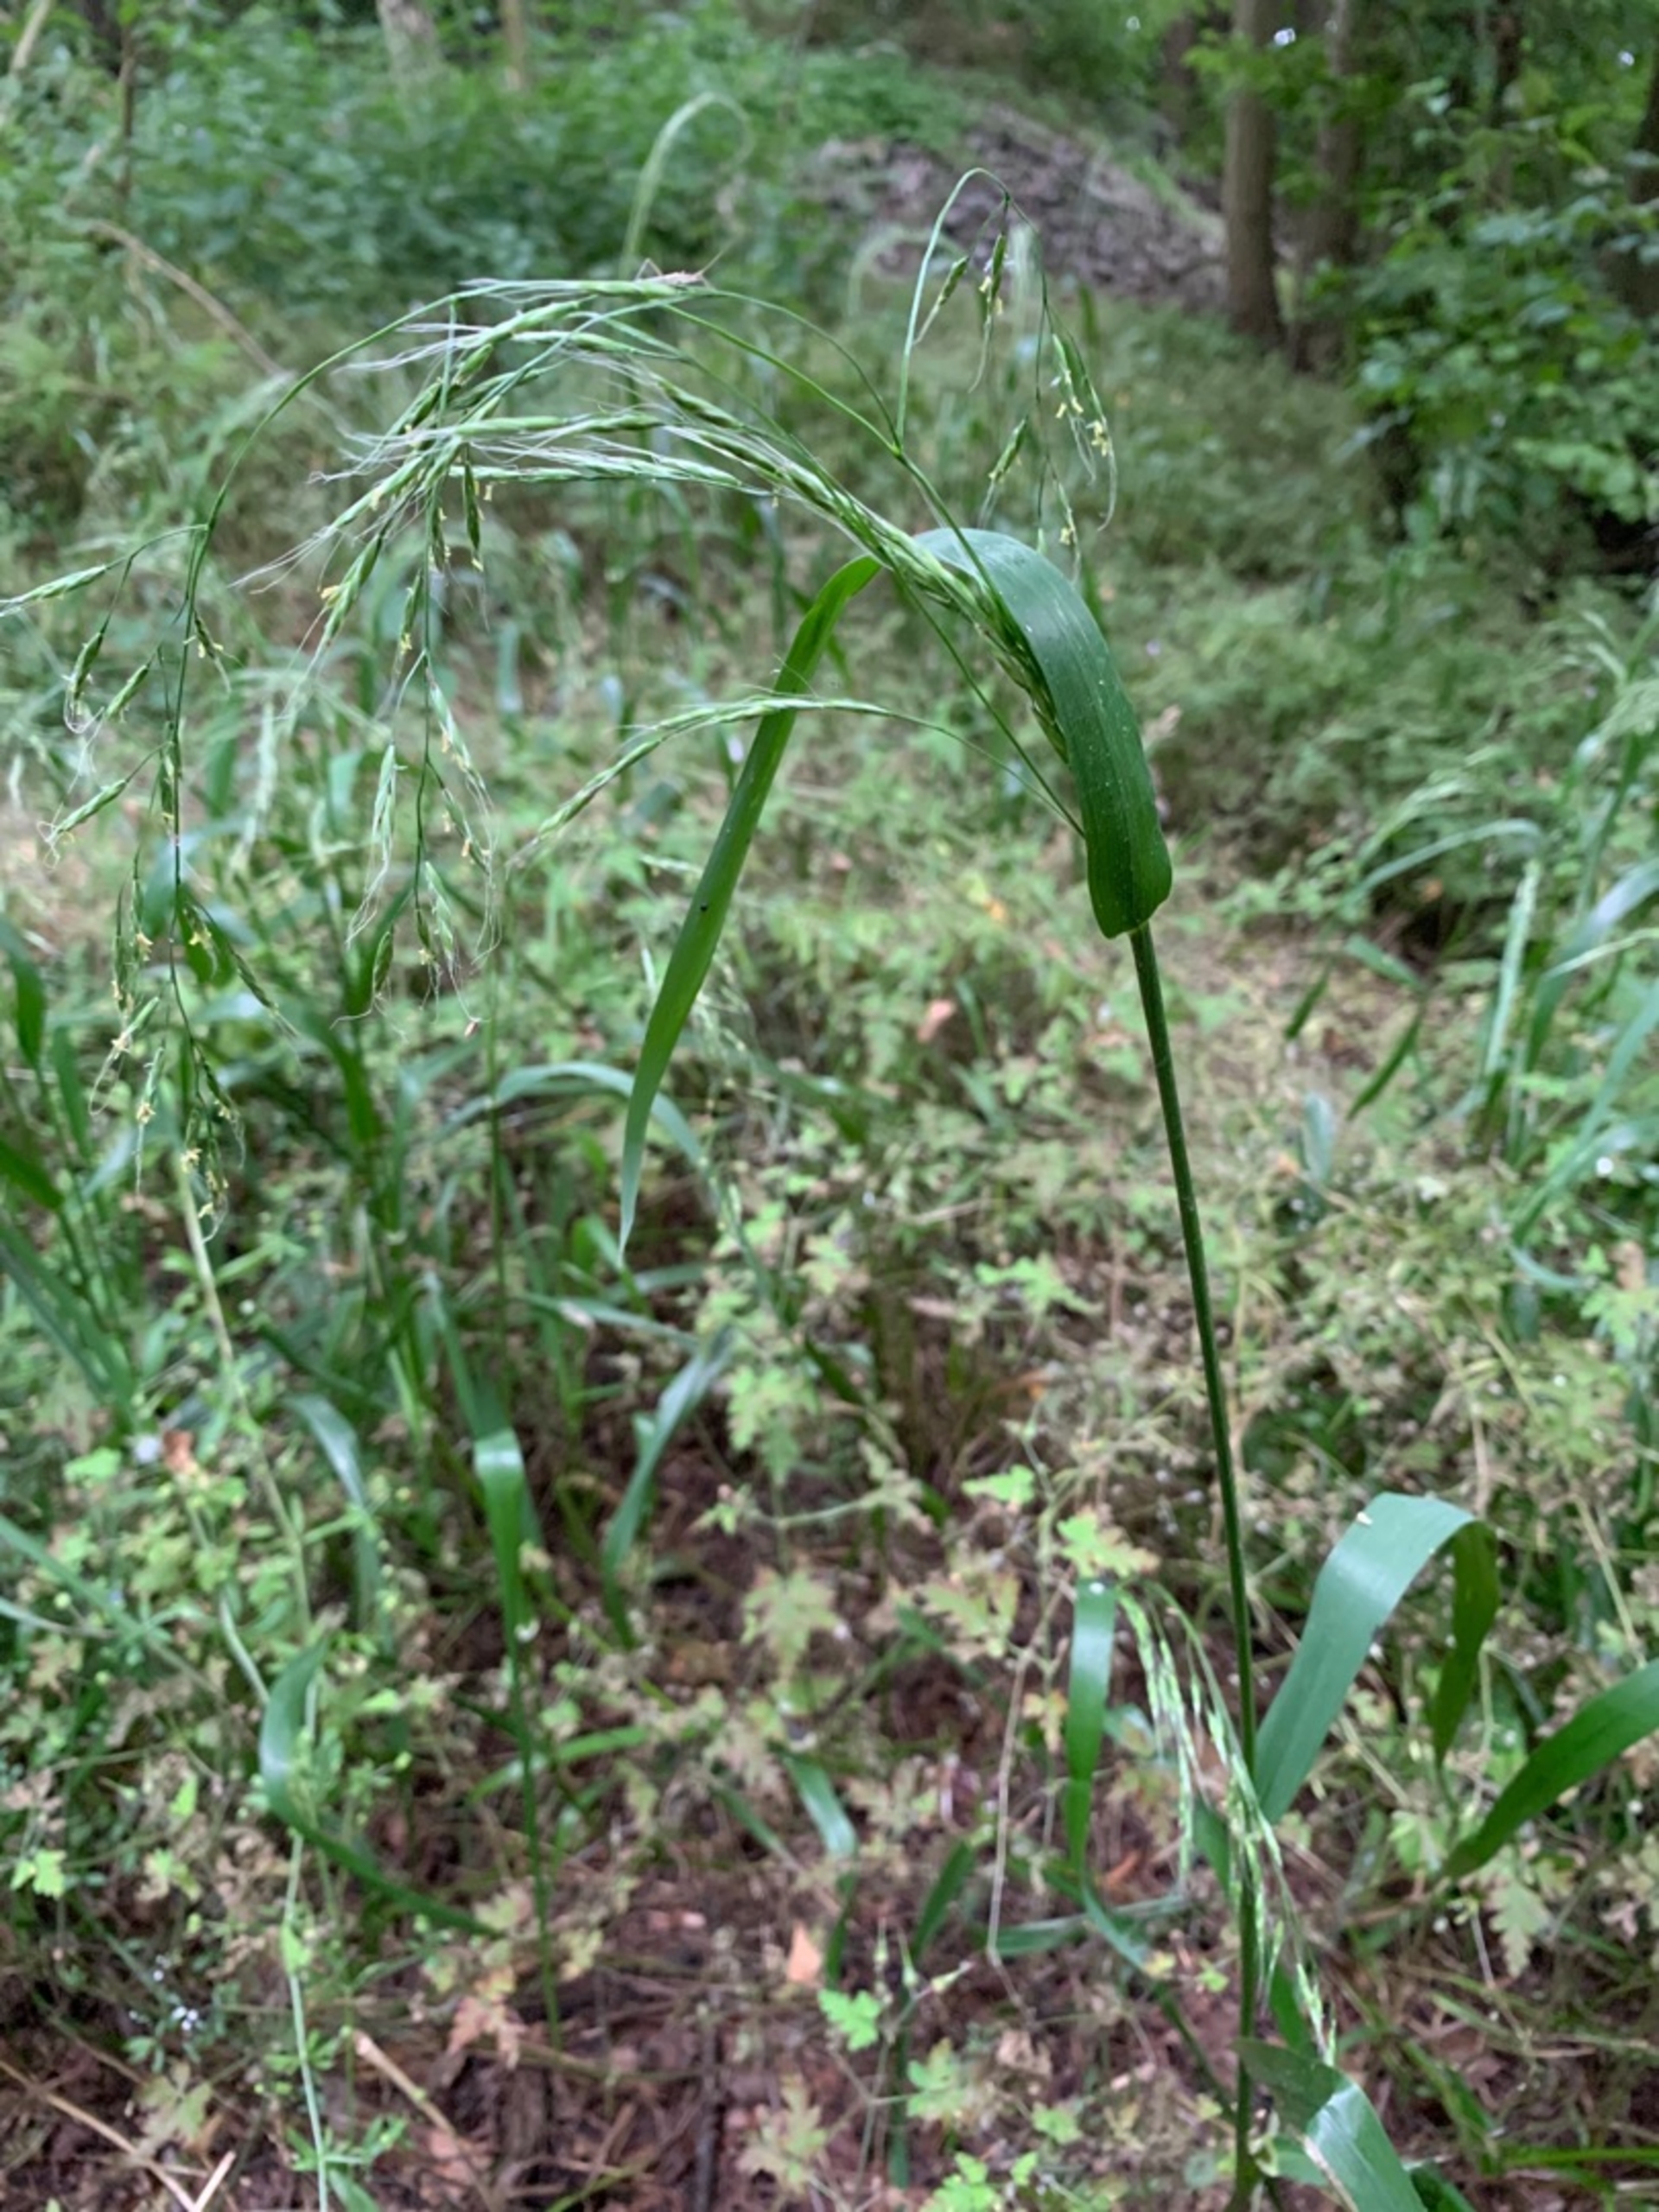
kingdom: Plantae
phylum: Tracheophyta
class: Liliopsida
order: Poales
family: Poaceae
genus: Lolium
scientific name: Lolium giganteum
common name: Kæmpe-svingel
